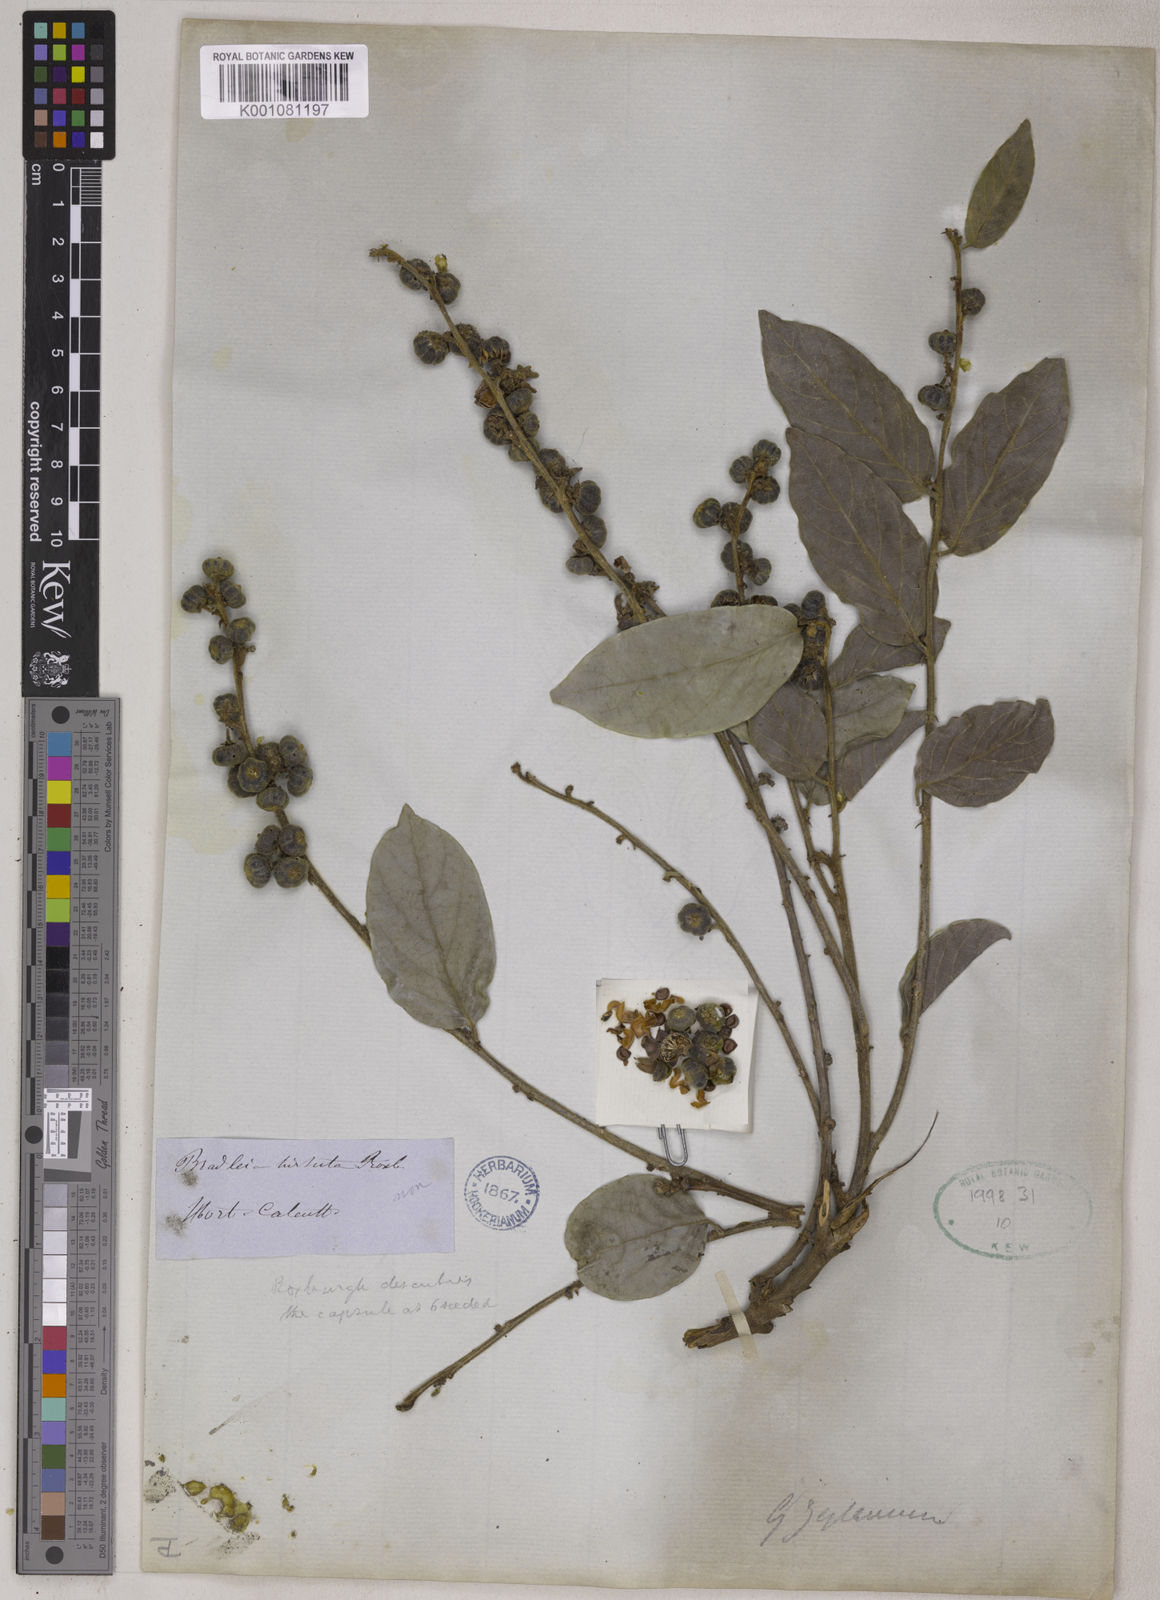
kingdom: Plantae
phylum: Tracheophyta
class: Magnoliopsida
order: Malpighiales
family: Phyllanthaceae
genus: Glochidion
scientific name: Glochidion zeylanicum
